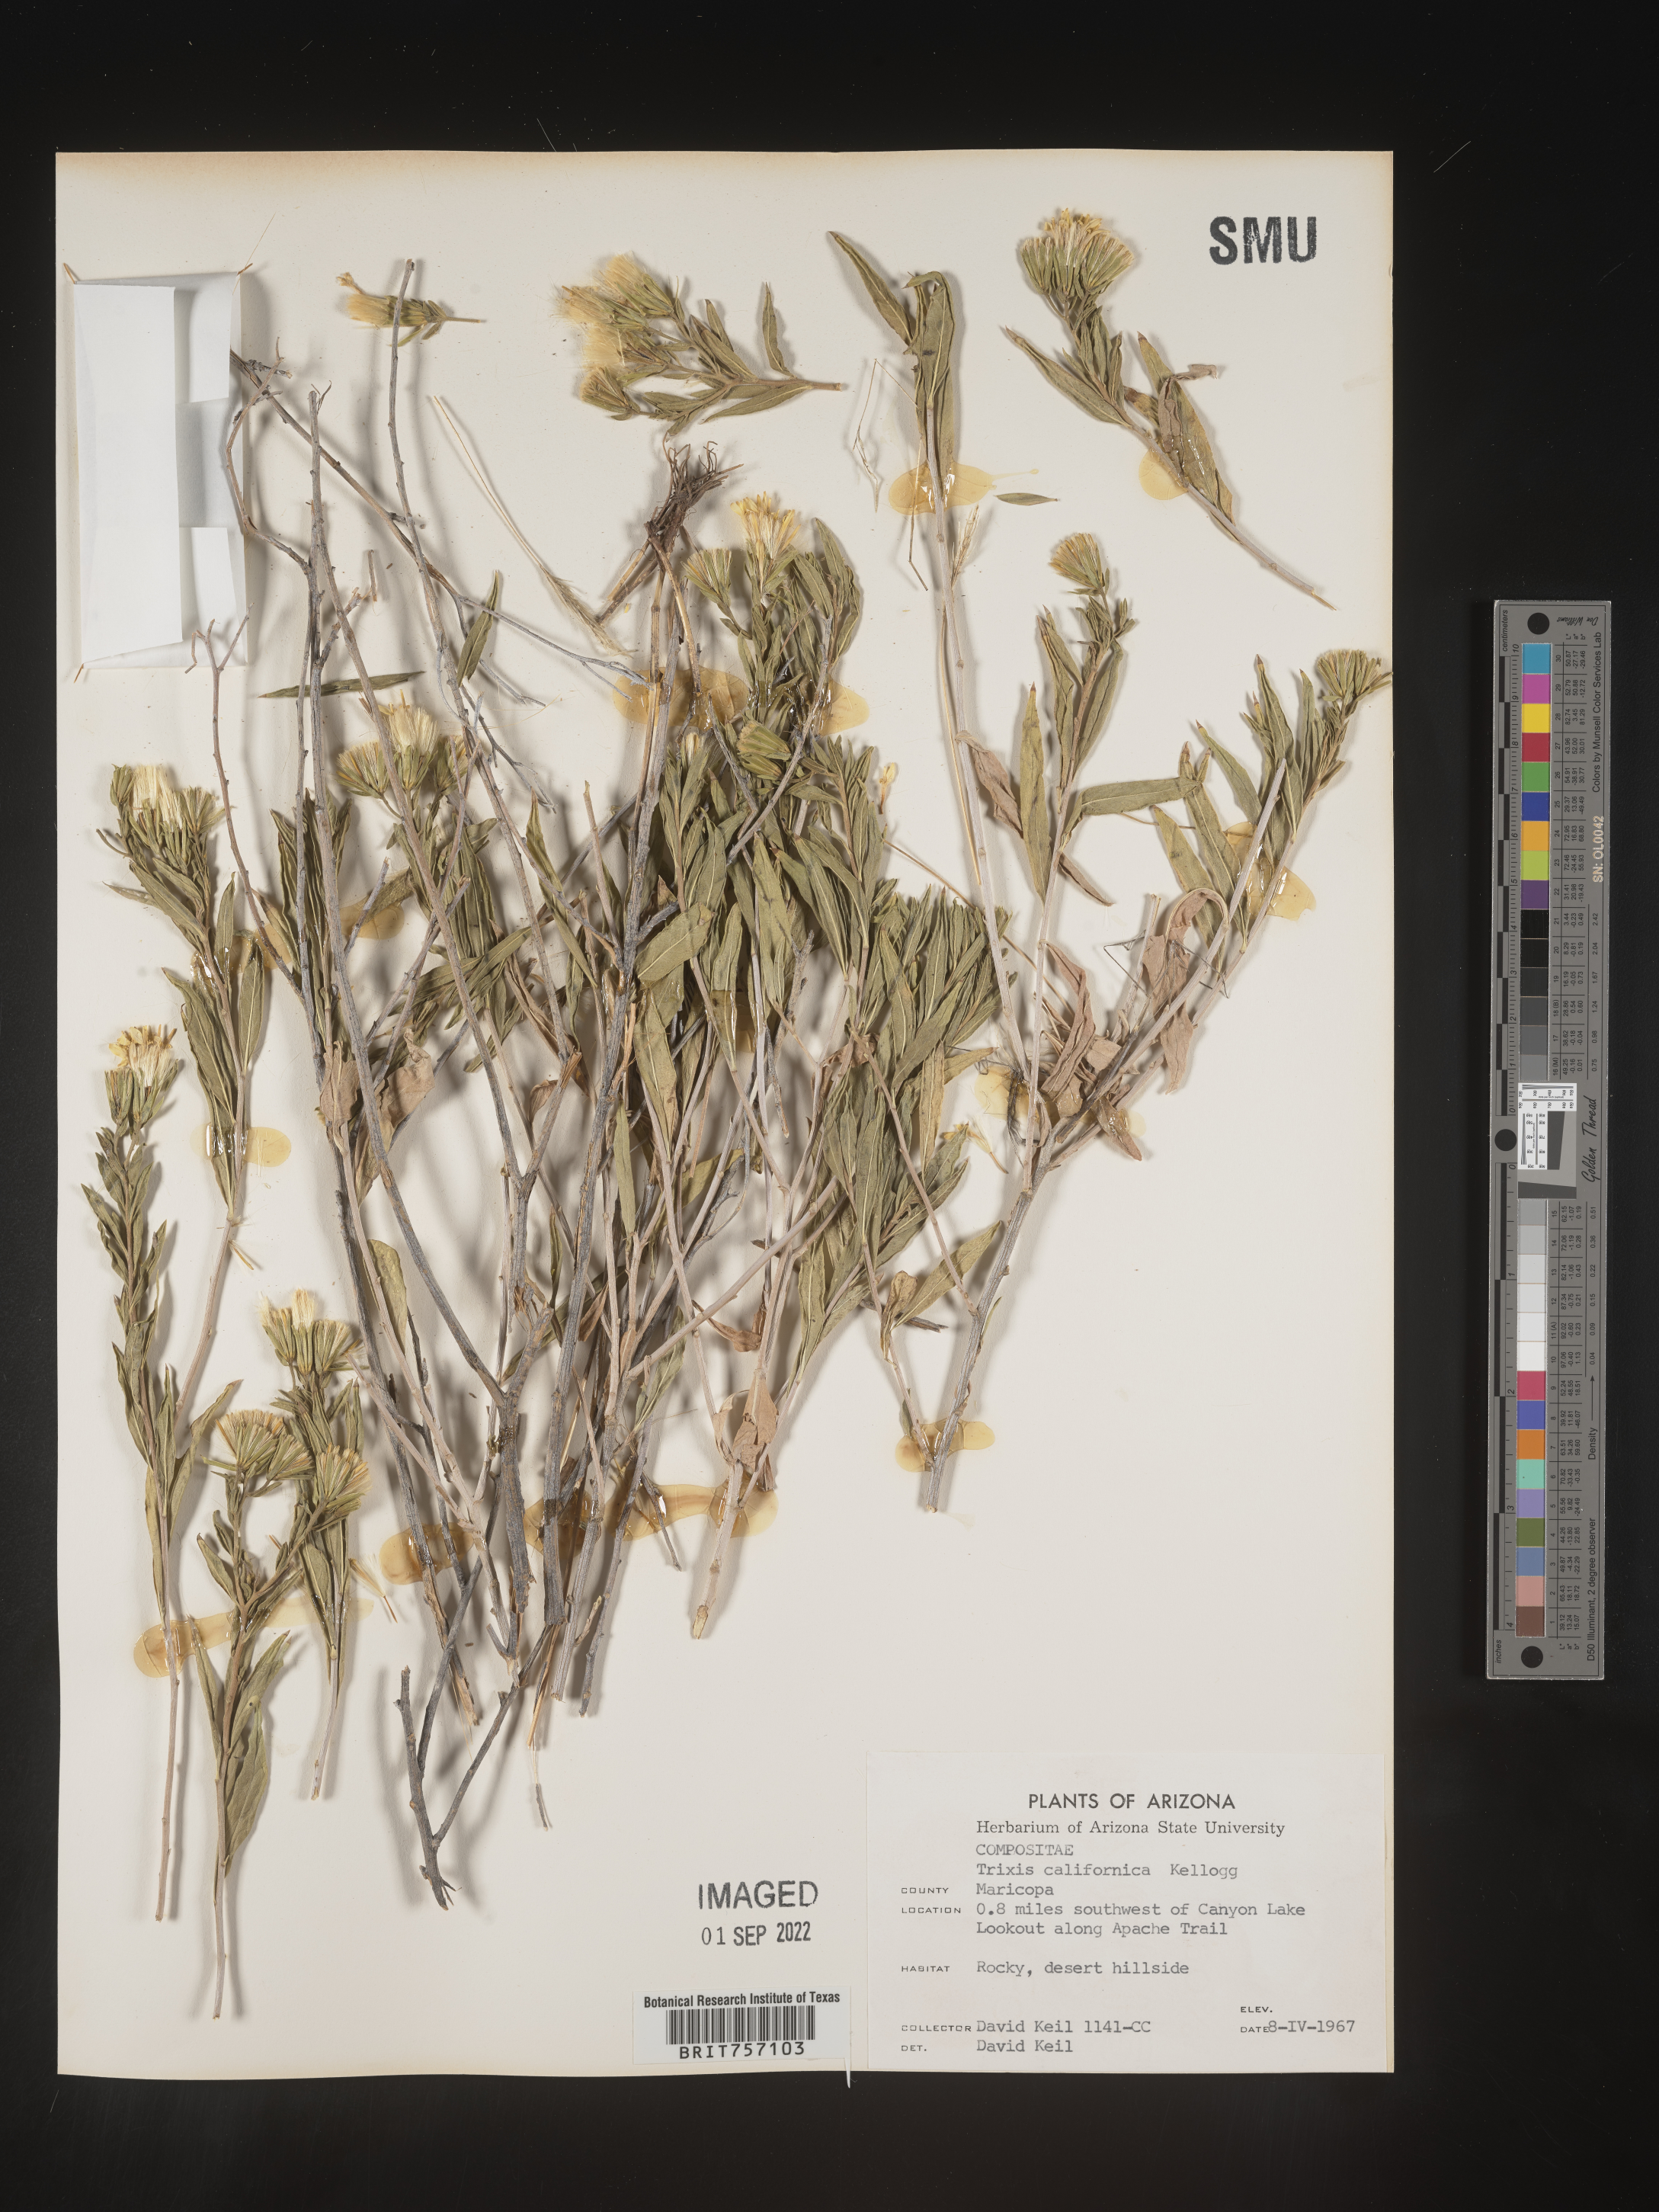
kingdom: Plantae
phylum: Tracheophyta
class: Magnoliopsida
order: Asterales
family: Asteraceae
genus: Trixis
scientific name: Trixis
